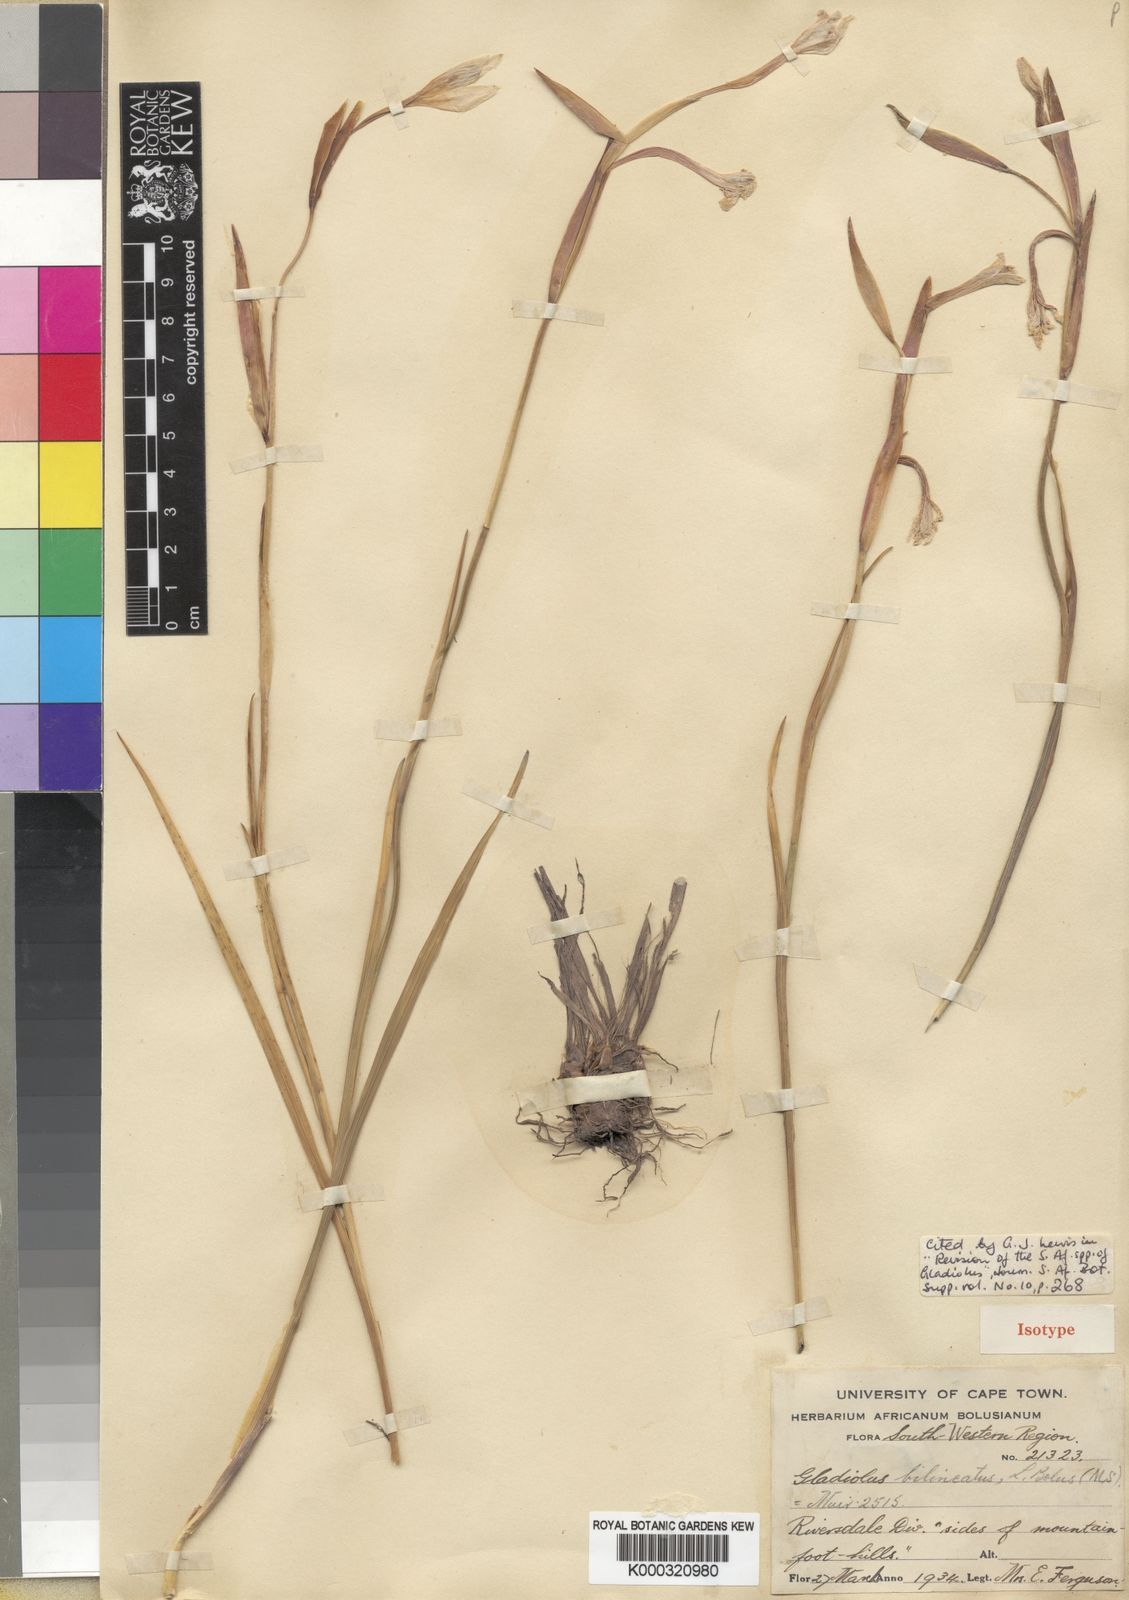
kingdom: Plantae
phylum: Tracheophyta
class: Liliopsida
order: Asparagales
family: Iridaceae
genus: Gladiolus
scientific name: Gladiolus bilineatus
